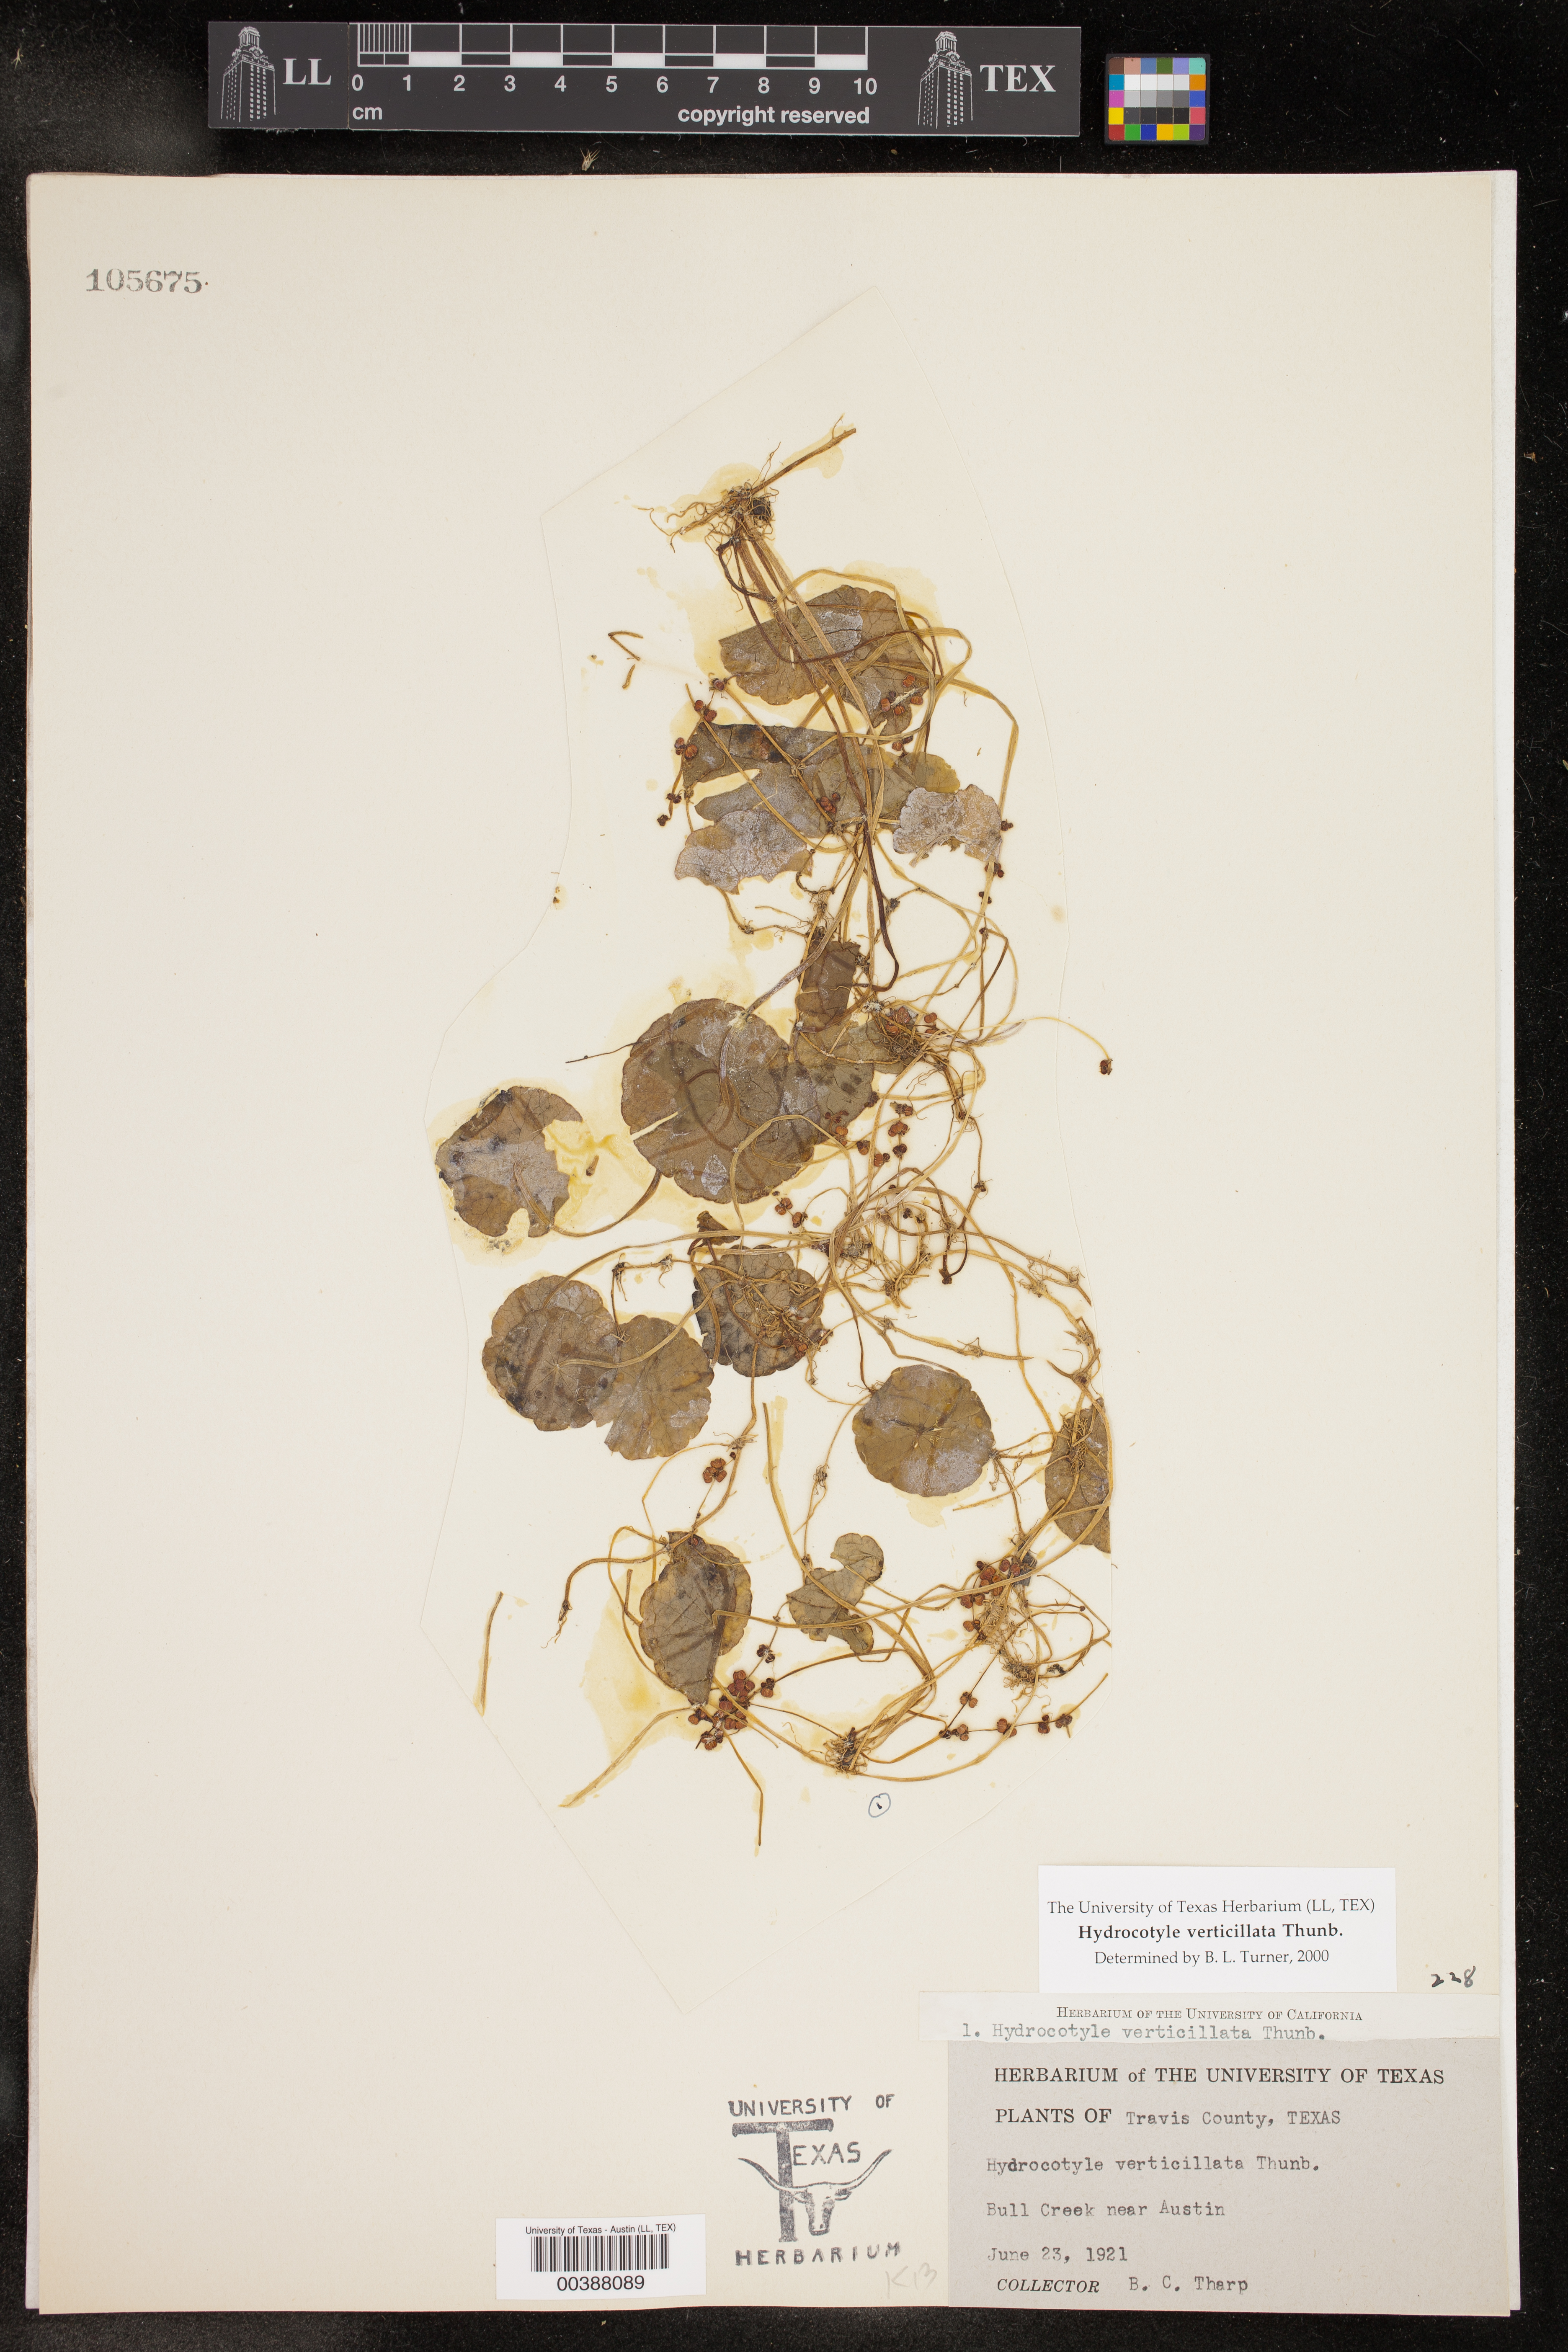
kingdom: Plantae
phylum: Tracheophyta
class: Magnoliopsida
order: Apiales
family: Araliaceae
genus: Hydrocotyle
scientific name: Hydrocotyle verticillata
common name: Whorled marshpennywort
